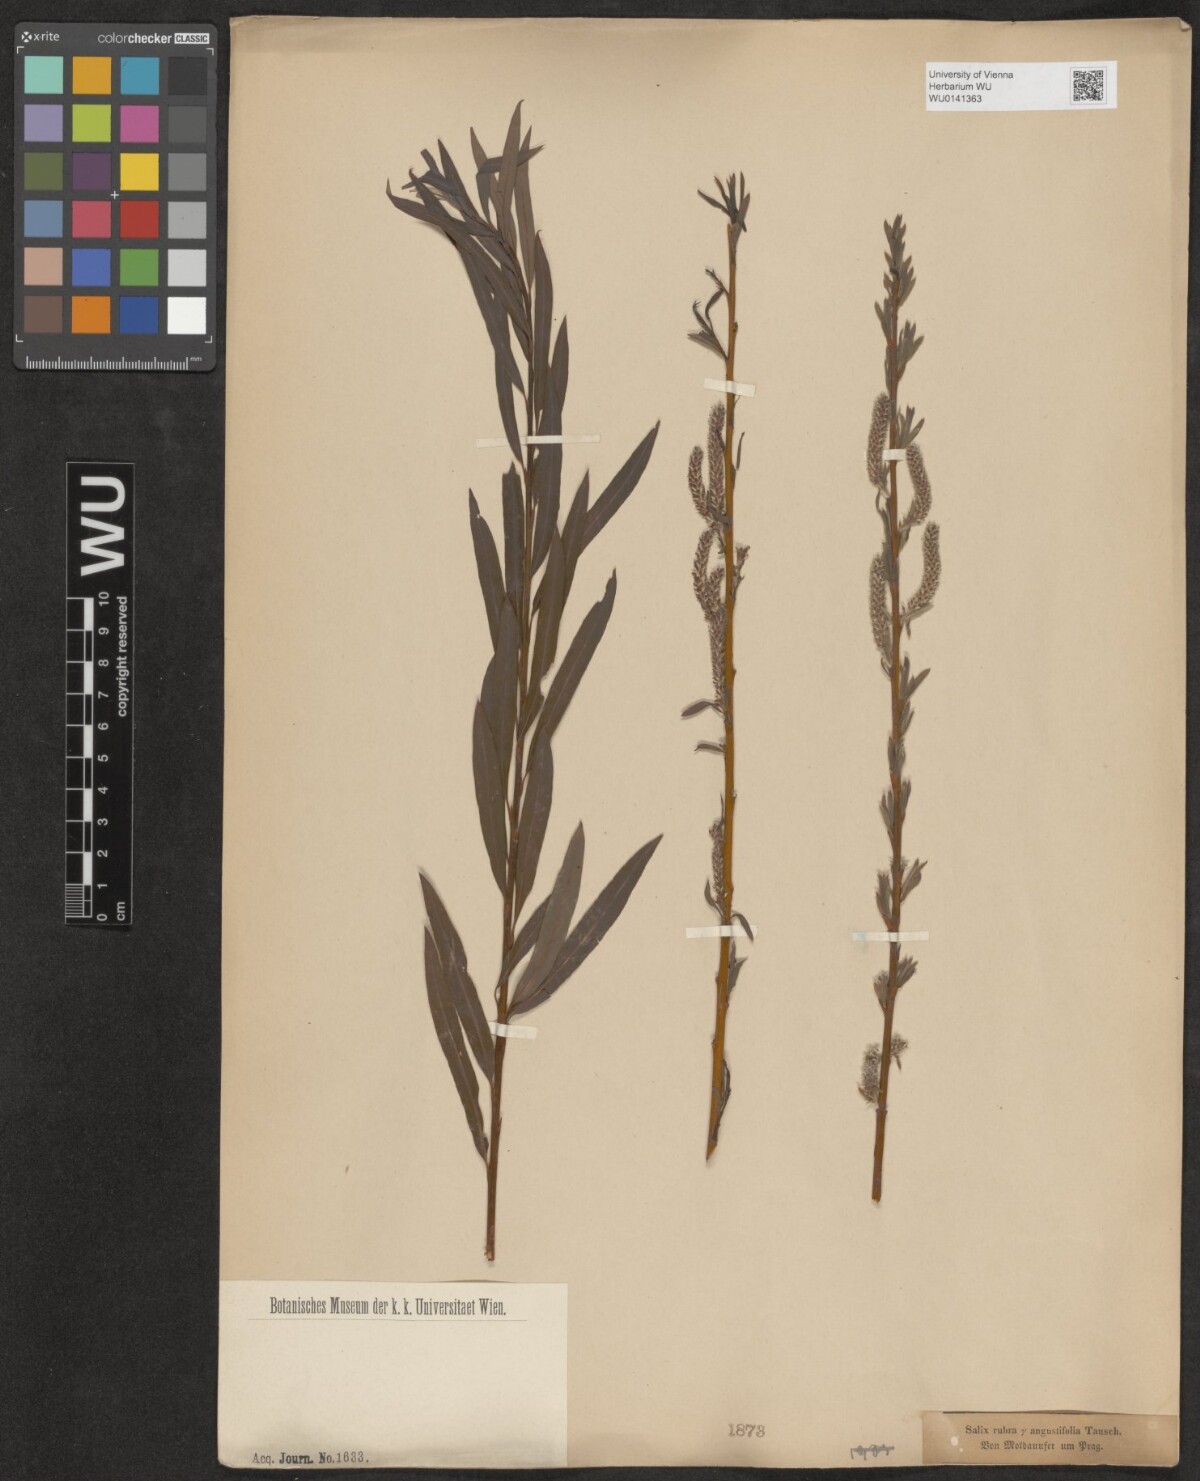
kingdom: Plantae
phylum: Tracheophyta
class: Magnoliopsida
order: Malpighiales
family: Salicaceae
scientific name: Salicaceae
